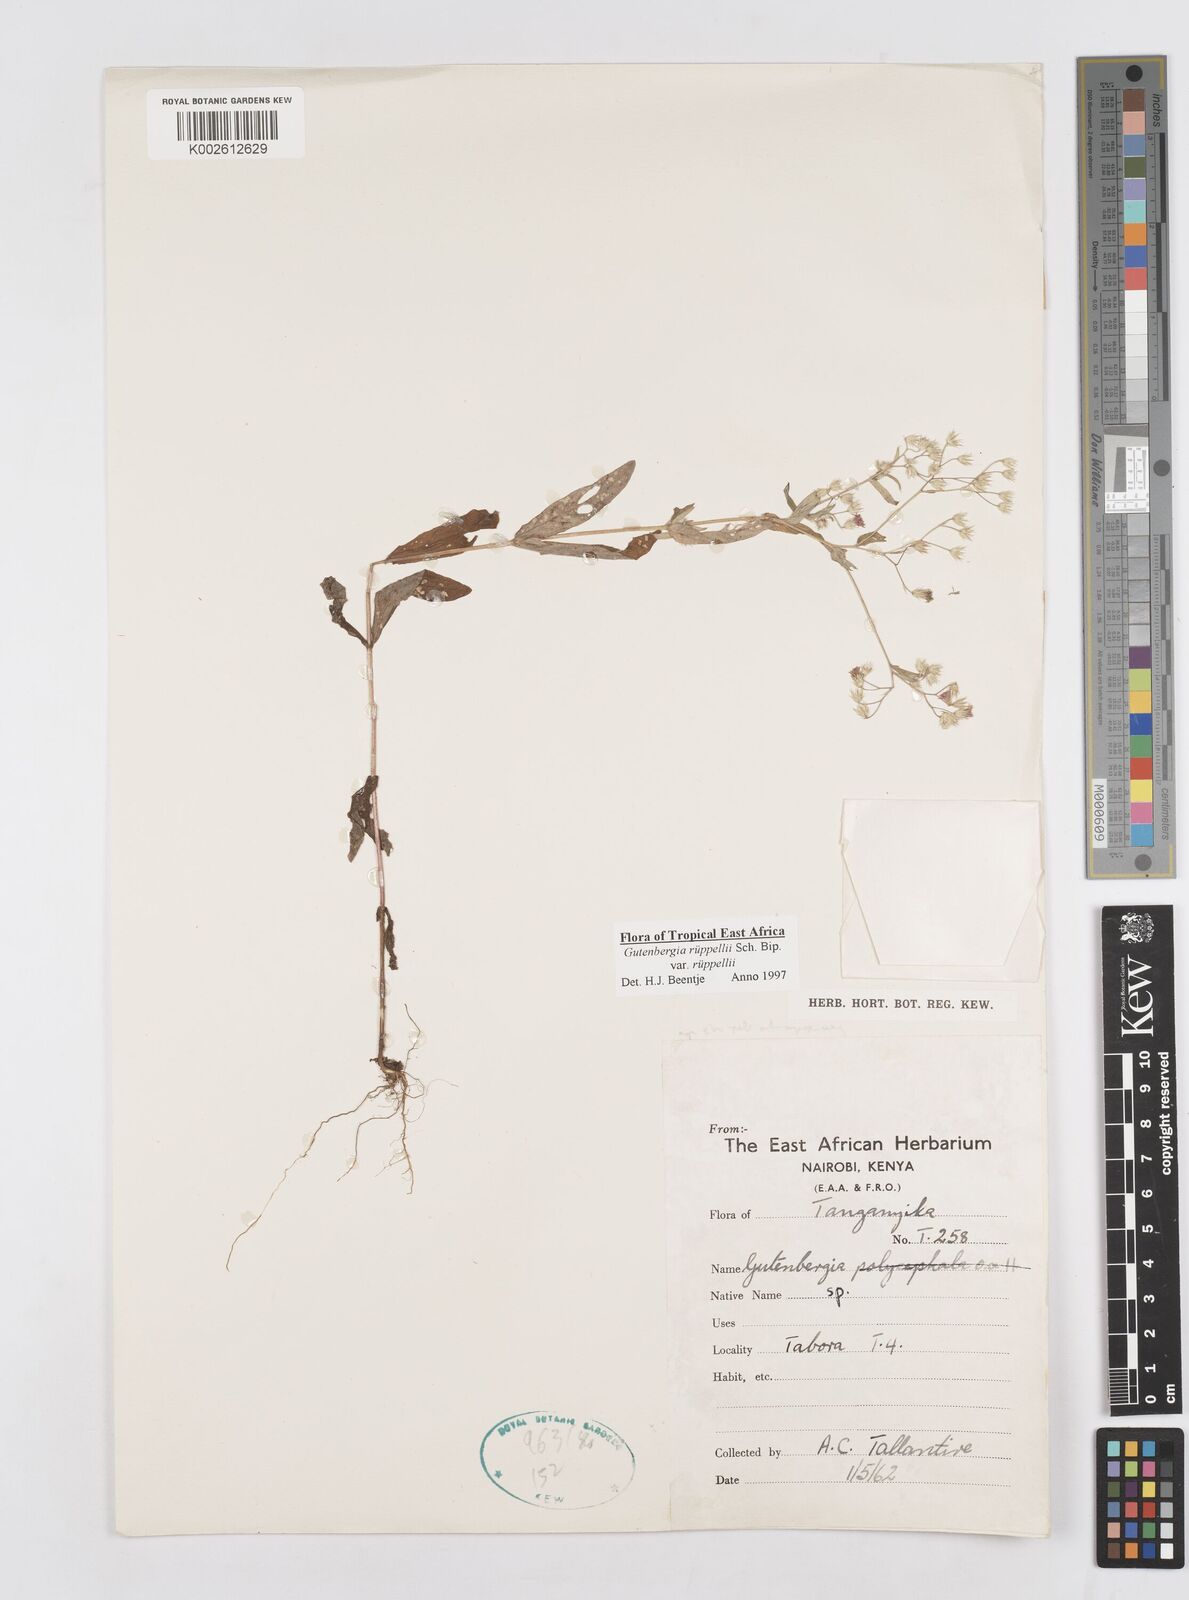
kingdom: Plantae
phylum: Tracheophyta
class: Magnoliopsida
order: Asterales
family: Asteraceae
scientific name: Asteraceae
